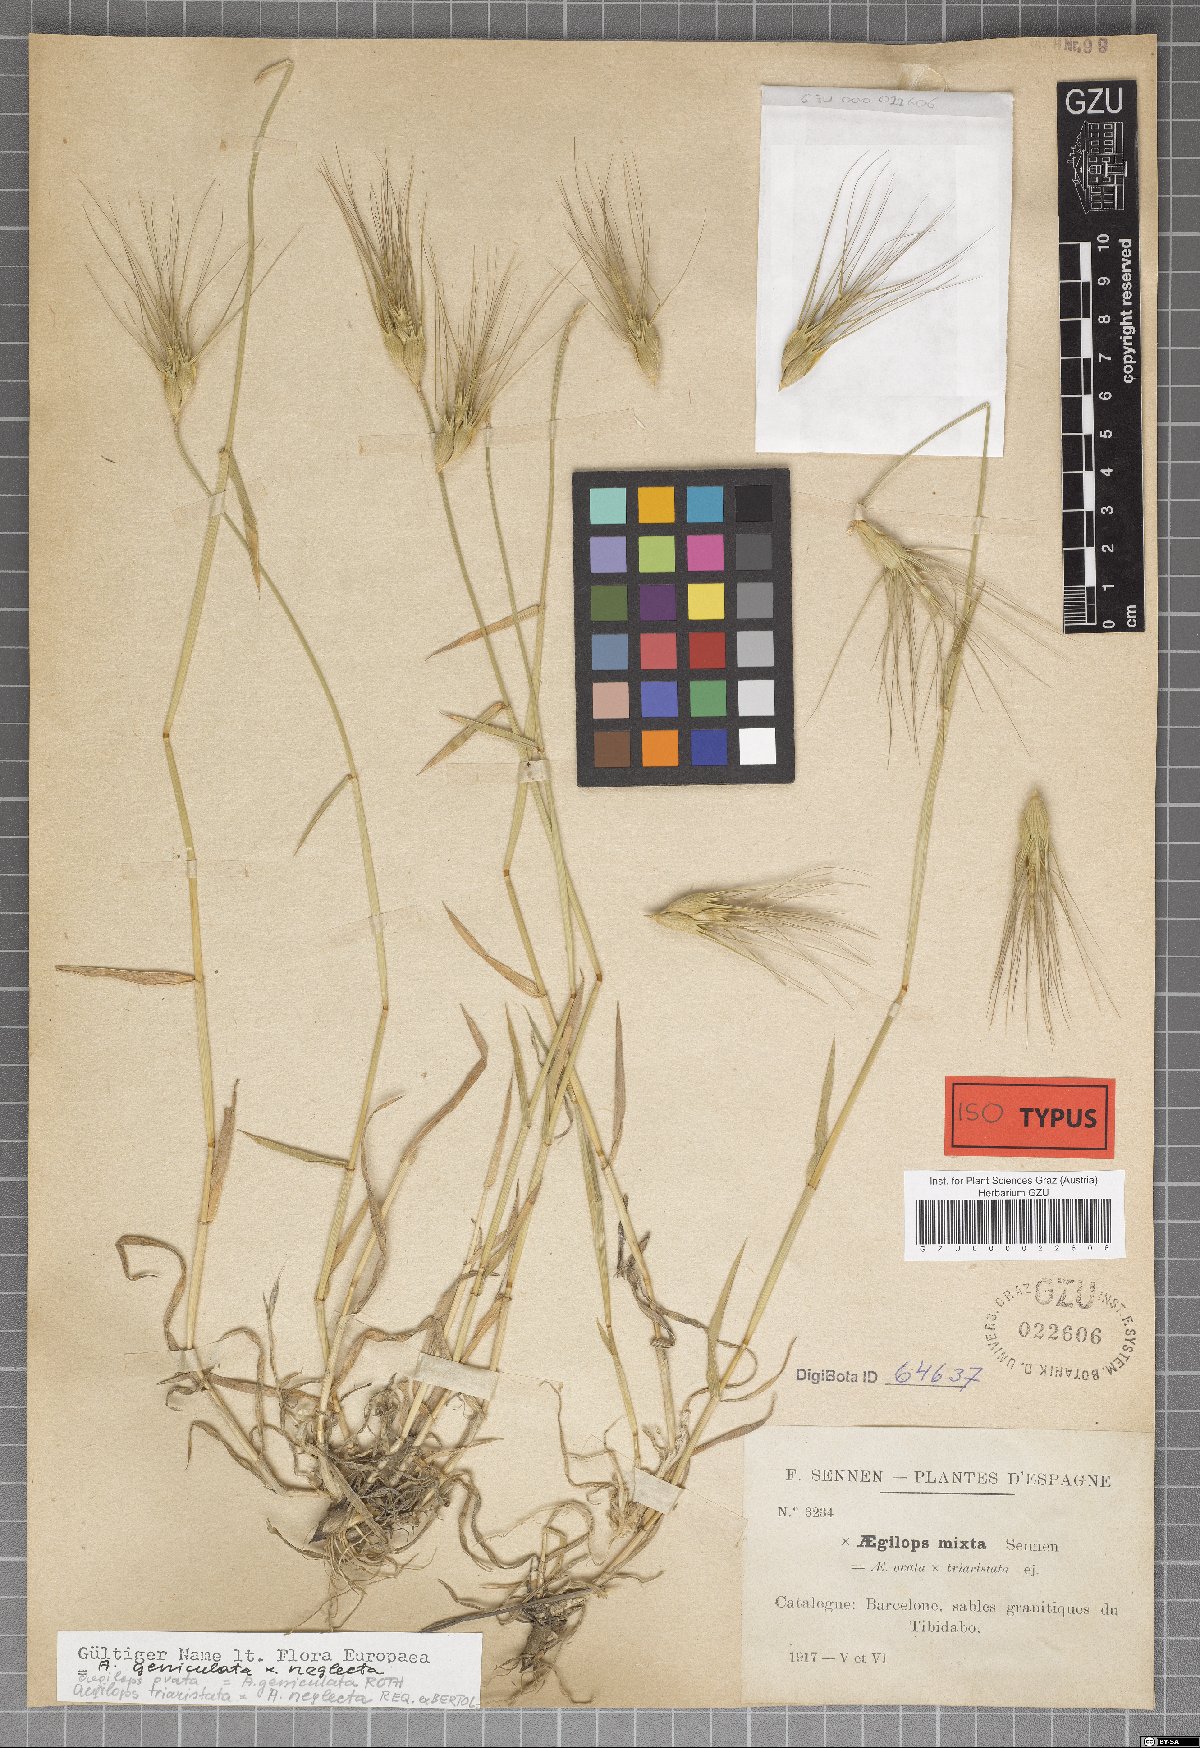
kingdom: Plantae
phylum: Tracheophyta
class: Liliopsida
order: Poales
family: Poaceae
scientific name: Poaceae
